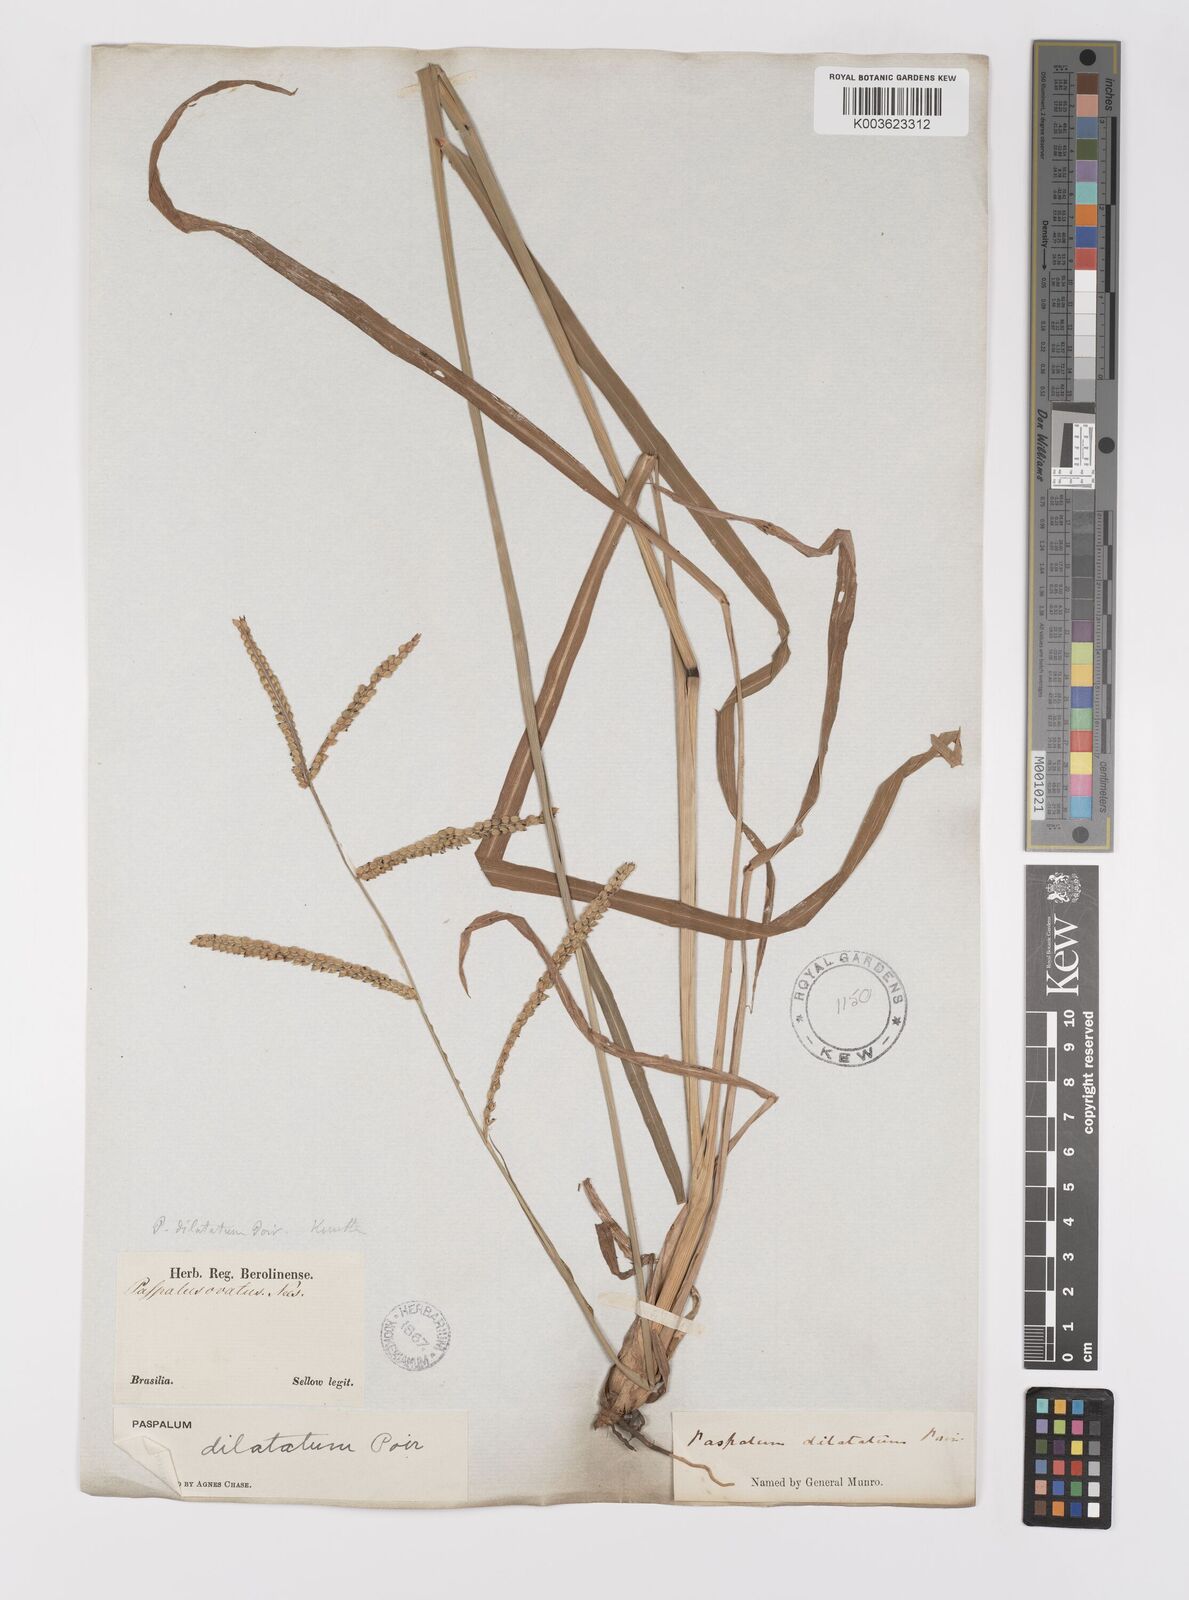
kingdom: Plantae
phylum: Tracheophyta
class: Liliopsida
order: Poales
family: Poaceae
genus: Paspalum
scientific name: Paspalum dilatatum
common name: Dallisgrass
